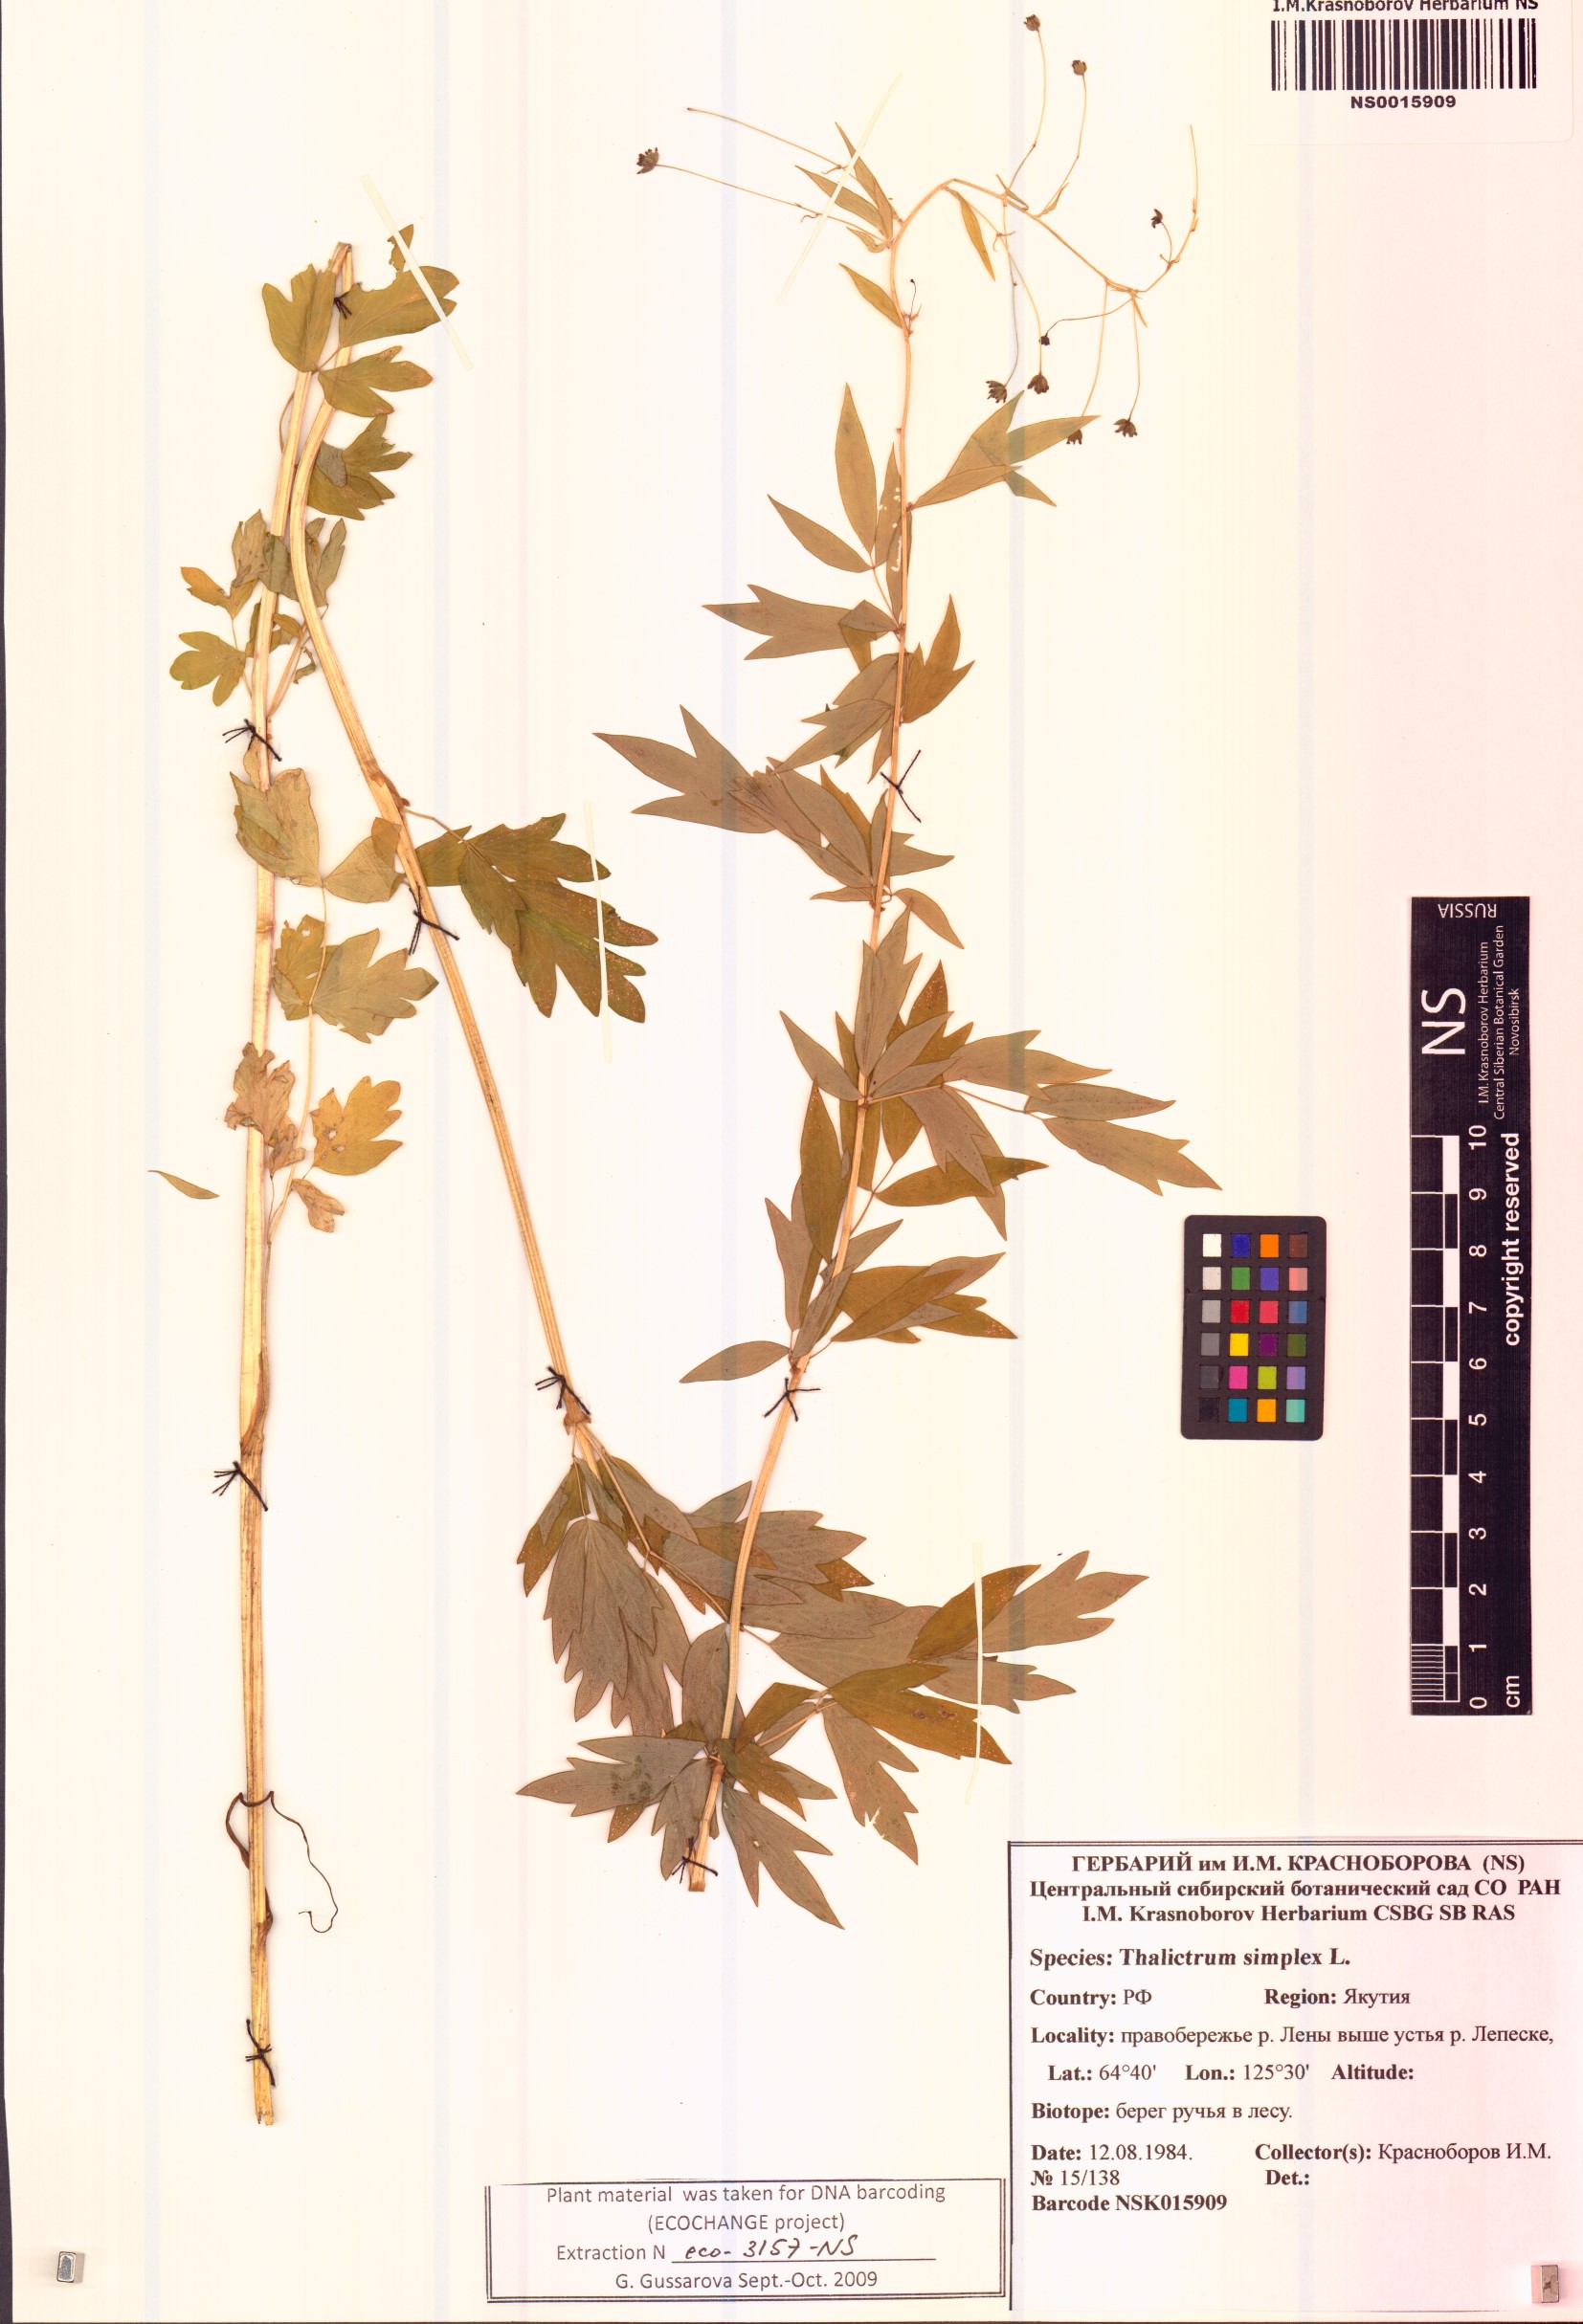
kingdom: Plantae
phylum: Tracheophyta
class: Magnoliopsida
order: Ranunculales
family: Ranunculaceae
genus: Thalictrum
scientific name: Thalictrum simplex
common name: Small meadow-rue
